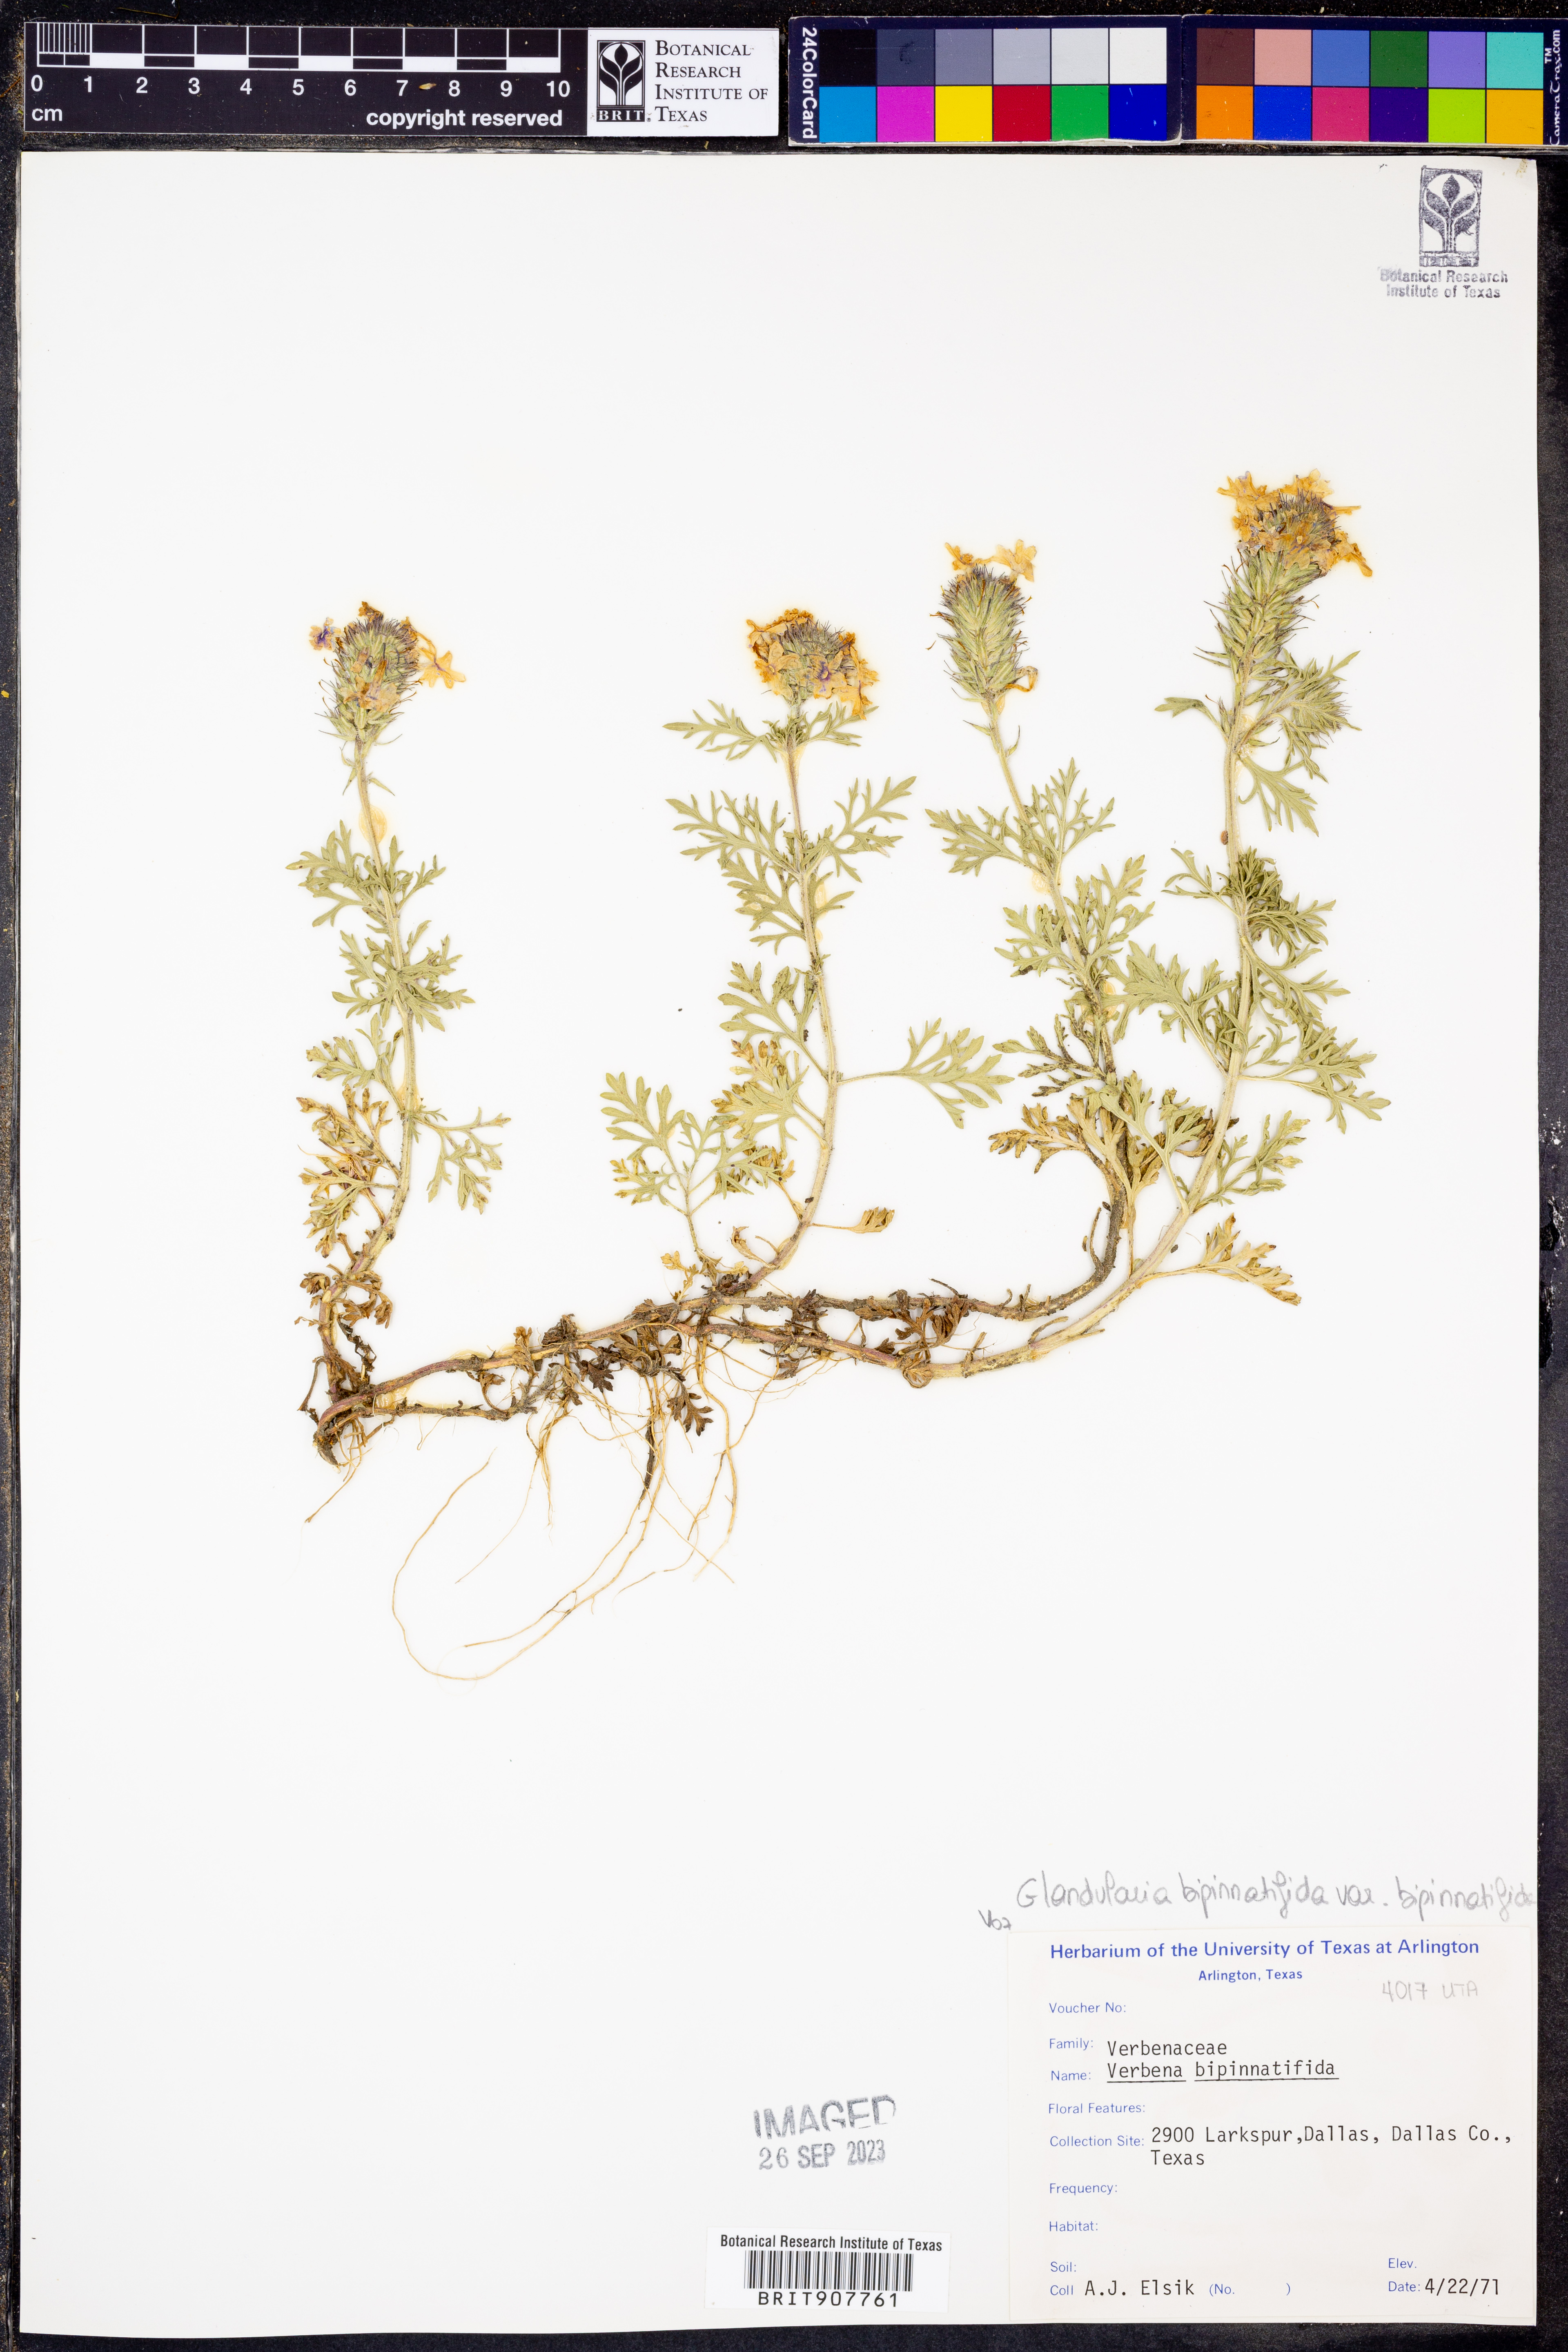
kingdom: Plantae
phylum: Tracheophyta
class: Magnoliopsida
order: Lamiales
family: Verbenaceae
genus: Verbena
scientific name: Verbena bipinnatifida
